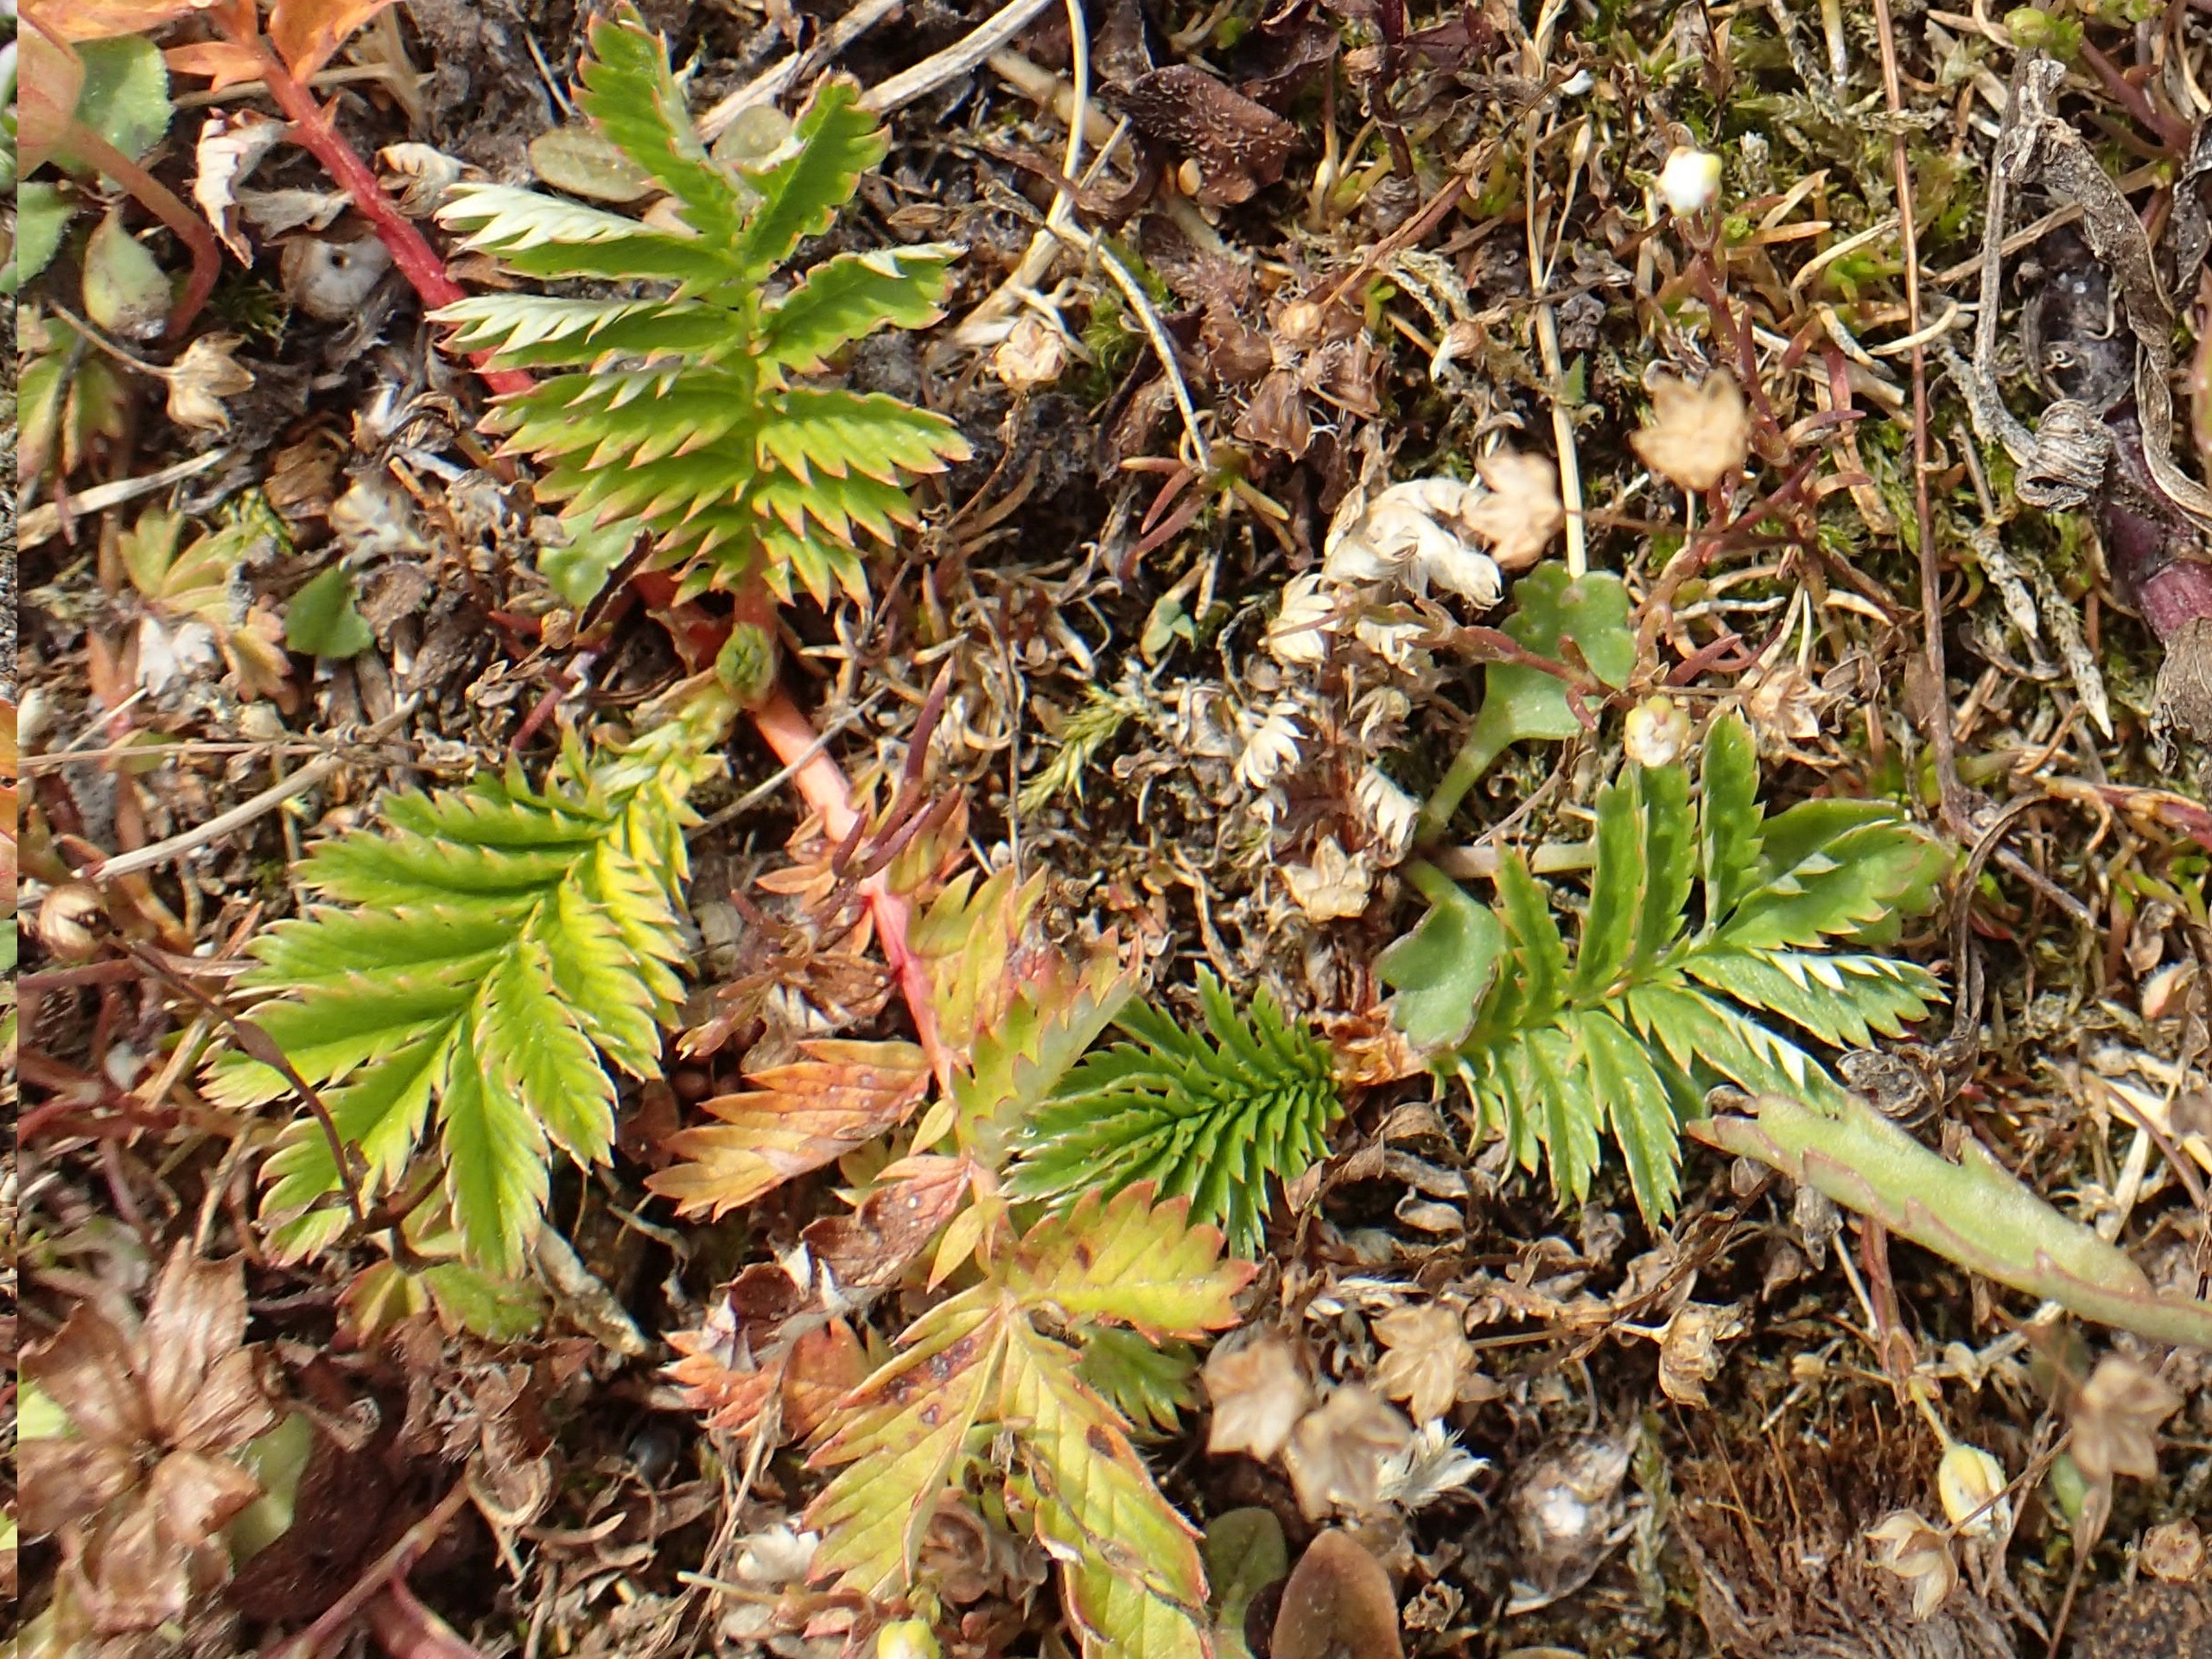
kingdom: Plantae
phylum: Tracheophyta
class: Magnoliopsida
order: Rosales
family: Rosaceae
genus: Argentina
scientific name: Argentina anserina
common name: Gåsepotentil
